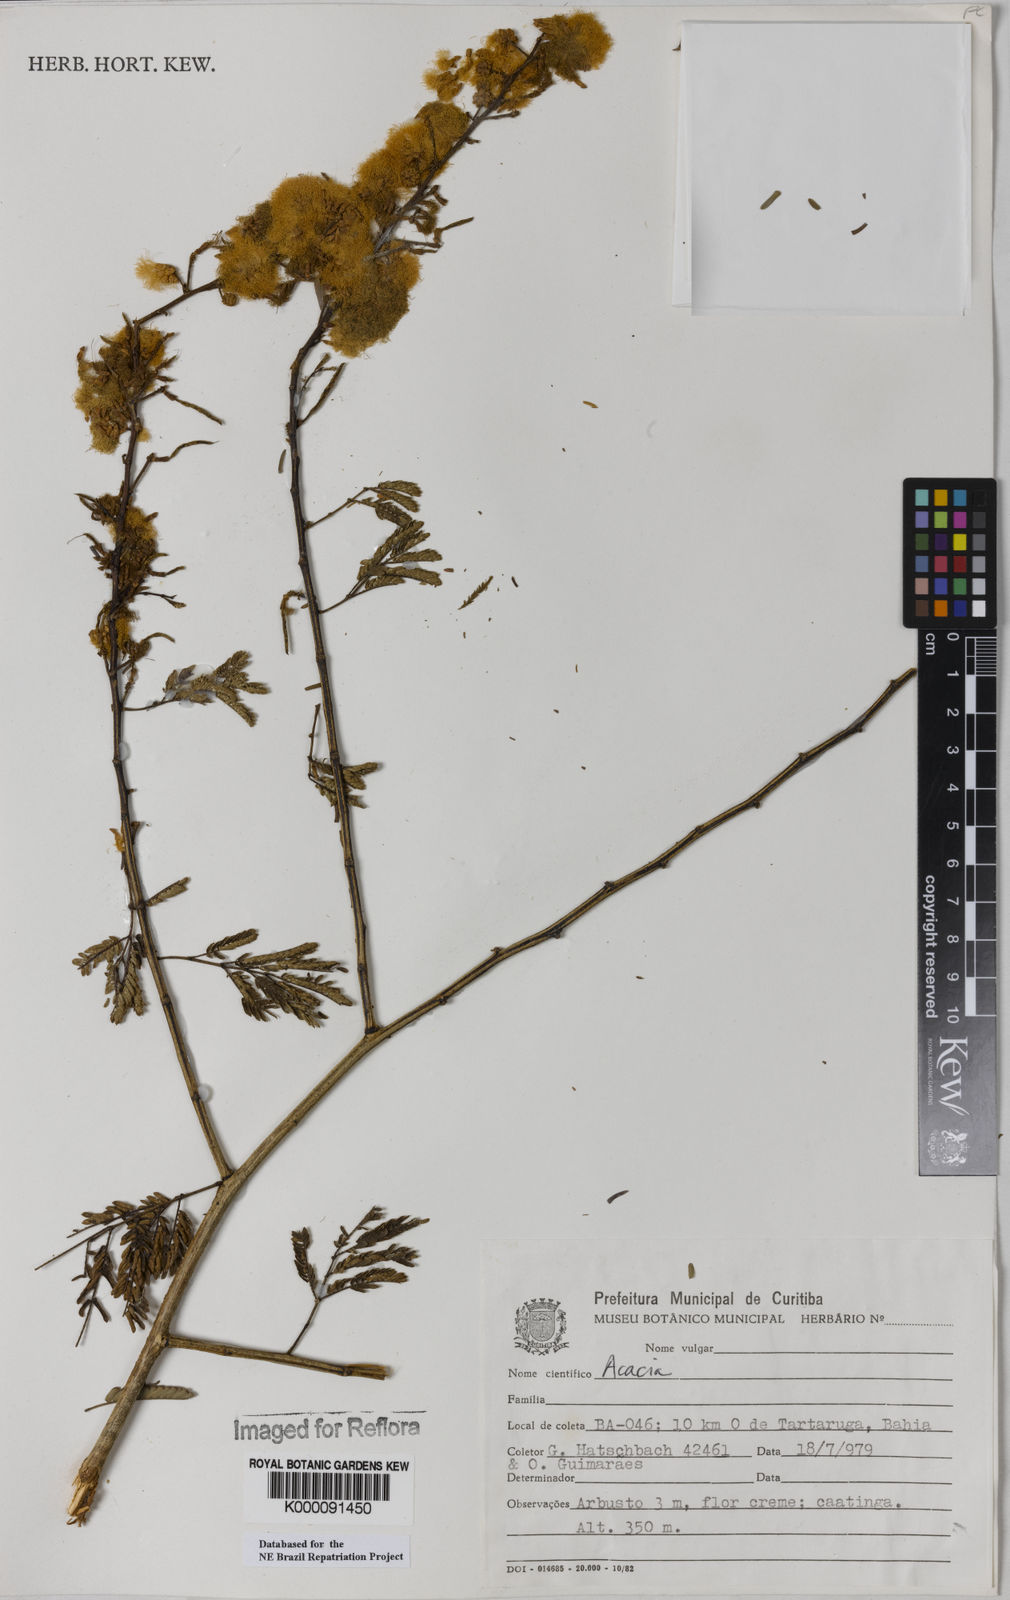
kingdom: Plantae
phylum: Tracheophyta
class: Magnoliopsida
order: Fabales
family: Fabaceae
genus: Acacia
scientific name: Acacia
